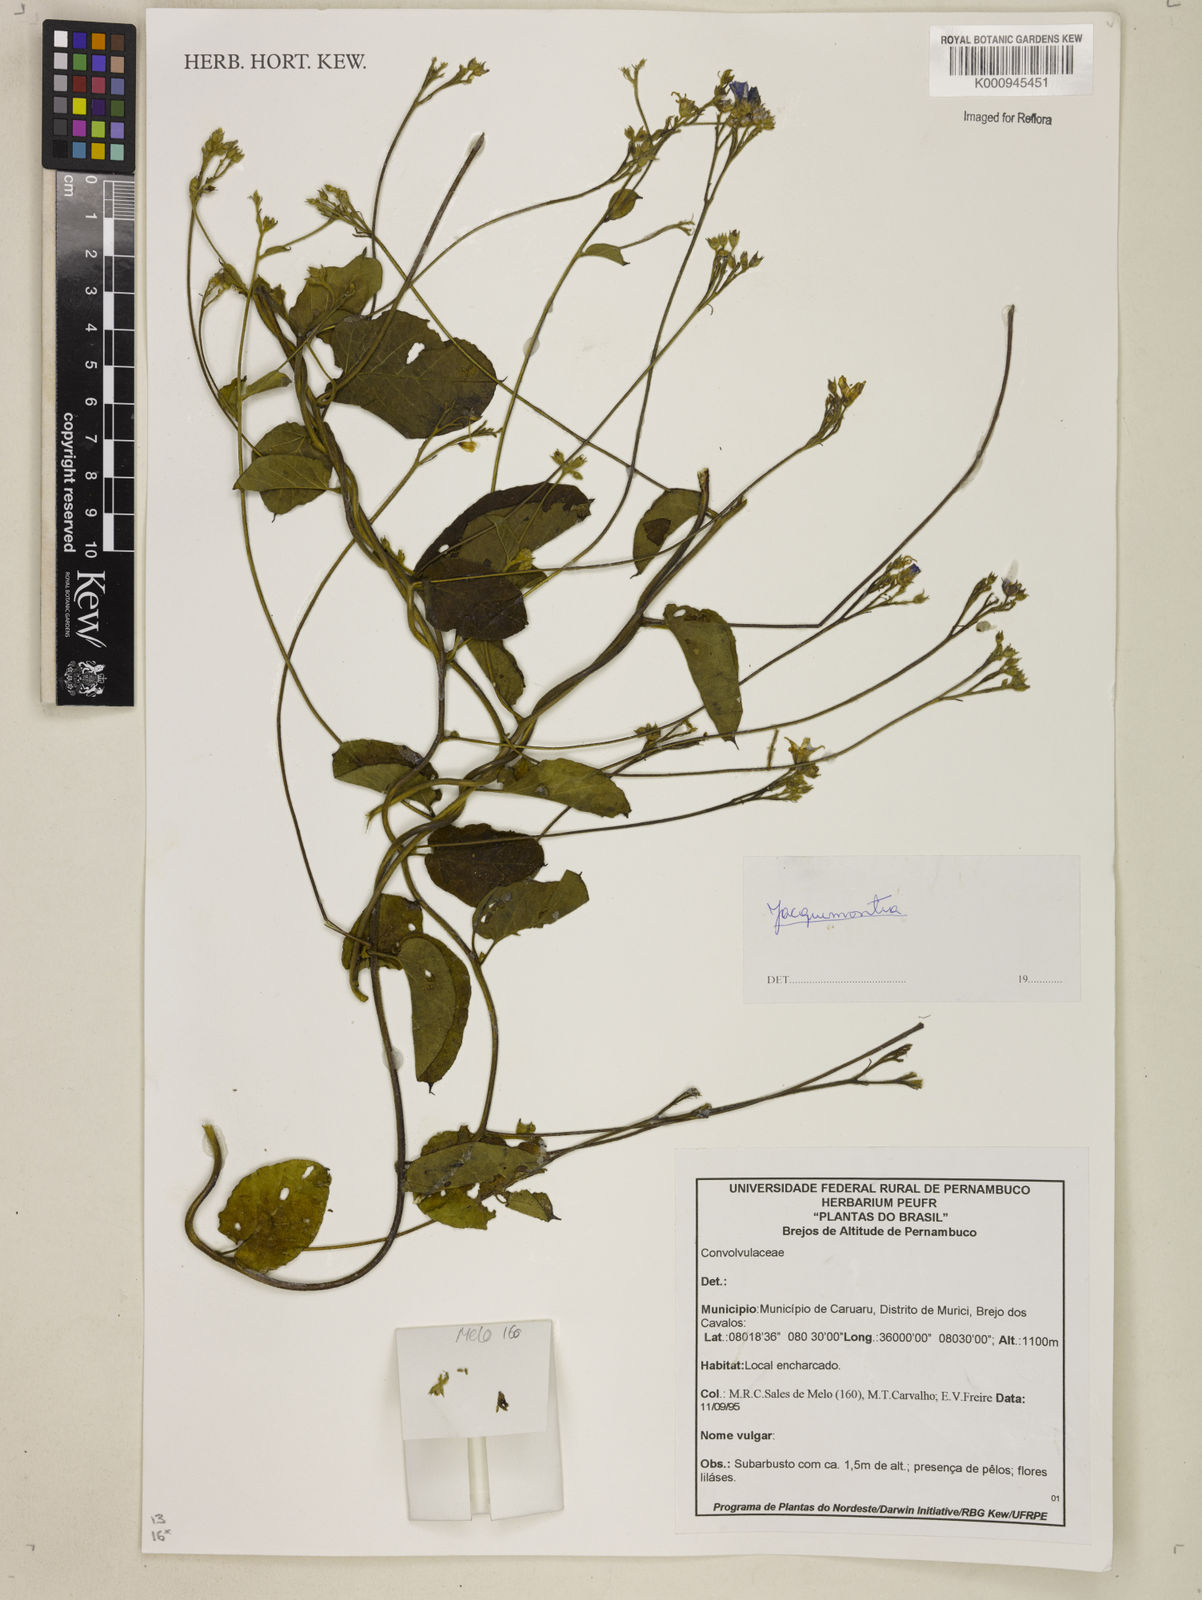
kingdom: Plantae
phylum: Tracheophyta
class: Magnoliopsida
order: Solanales
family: Convolvulaceae
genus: Jacquemontia
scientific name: Jacquemontia
